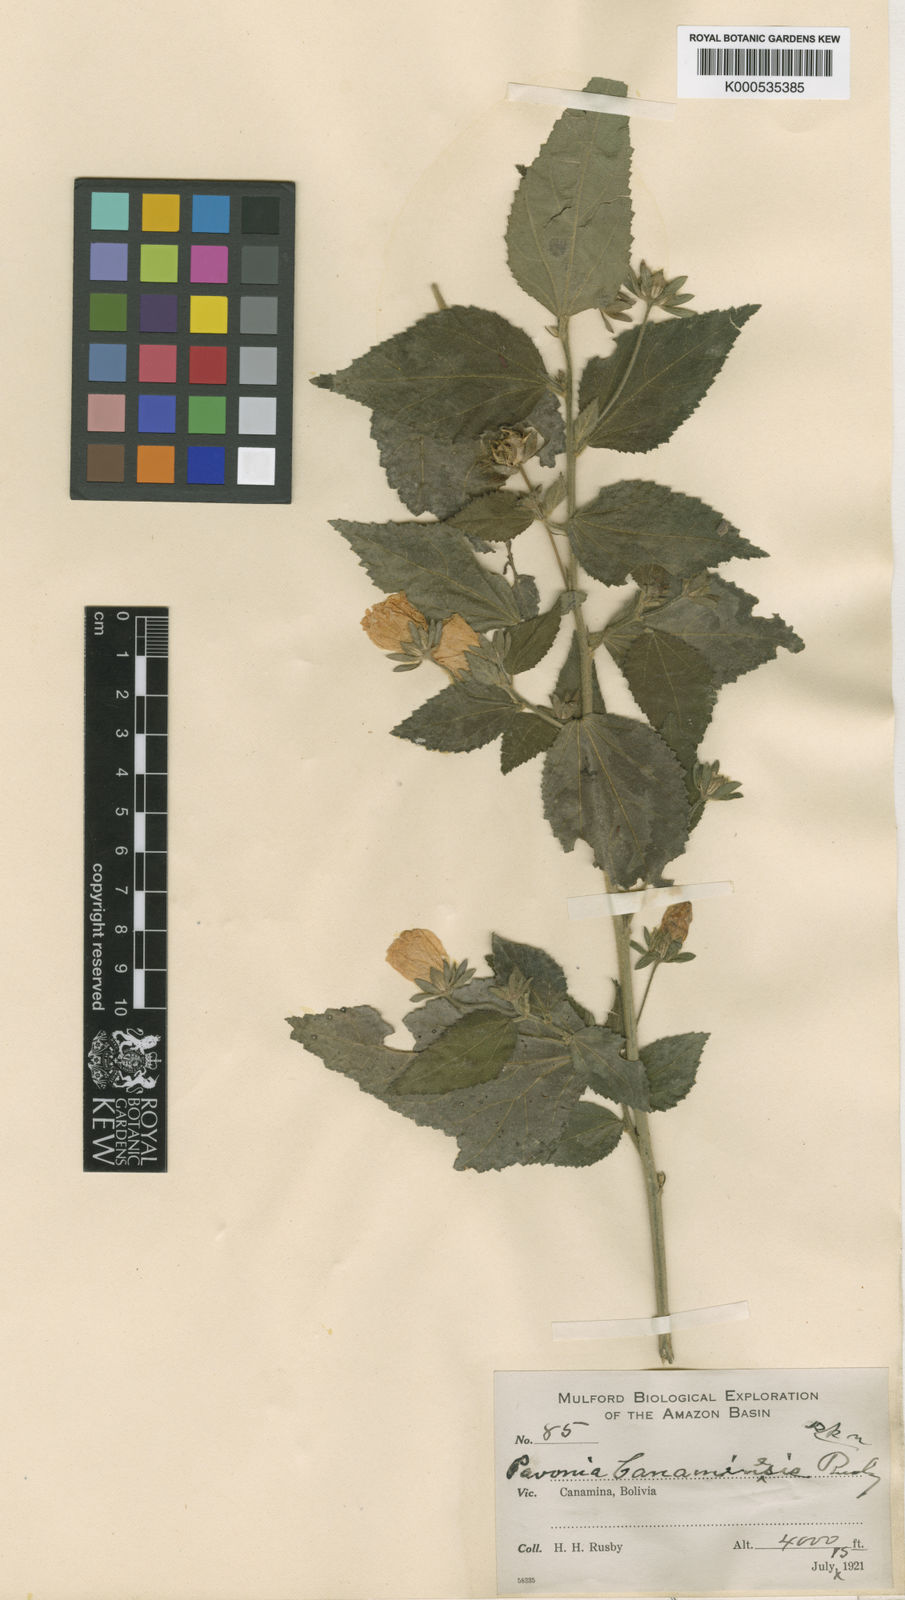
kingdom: Plantae
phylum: Tracheophyta
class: Magnoliopsida
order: Malvales
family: Malvaceae
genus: Pavonia
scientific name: Pavonia communis
